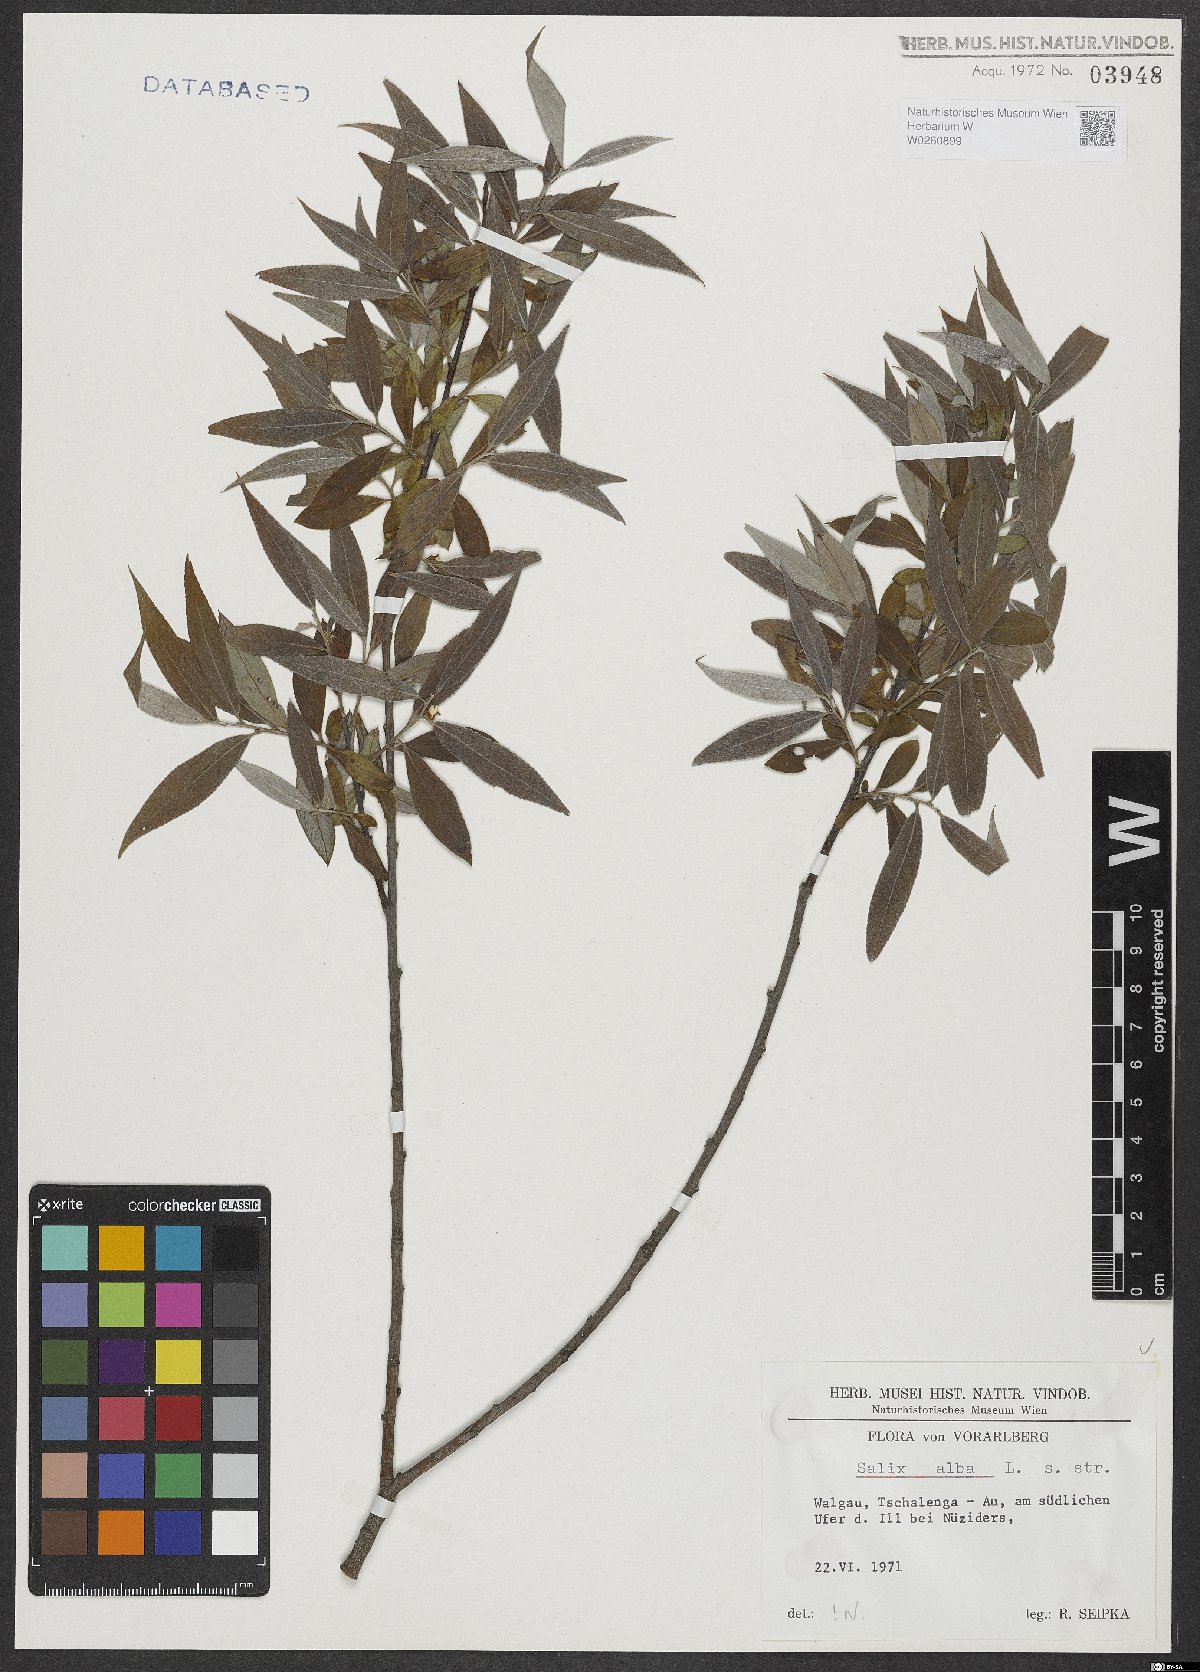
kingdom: Plantae
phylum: Tracheophyta
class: Magnoliopsida
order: Malpighiales
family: Salicaceae
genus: Salix
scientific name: Salix alba
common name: White willow
